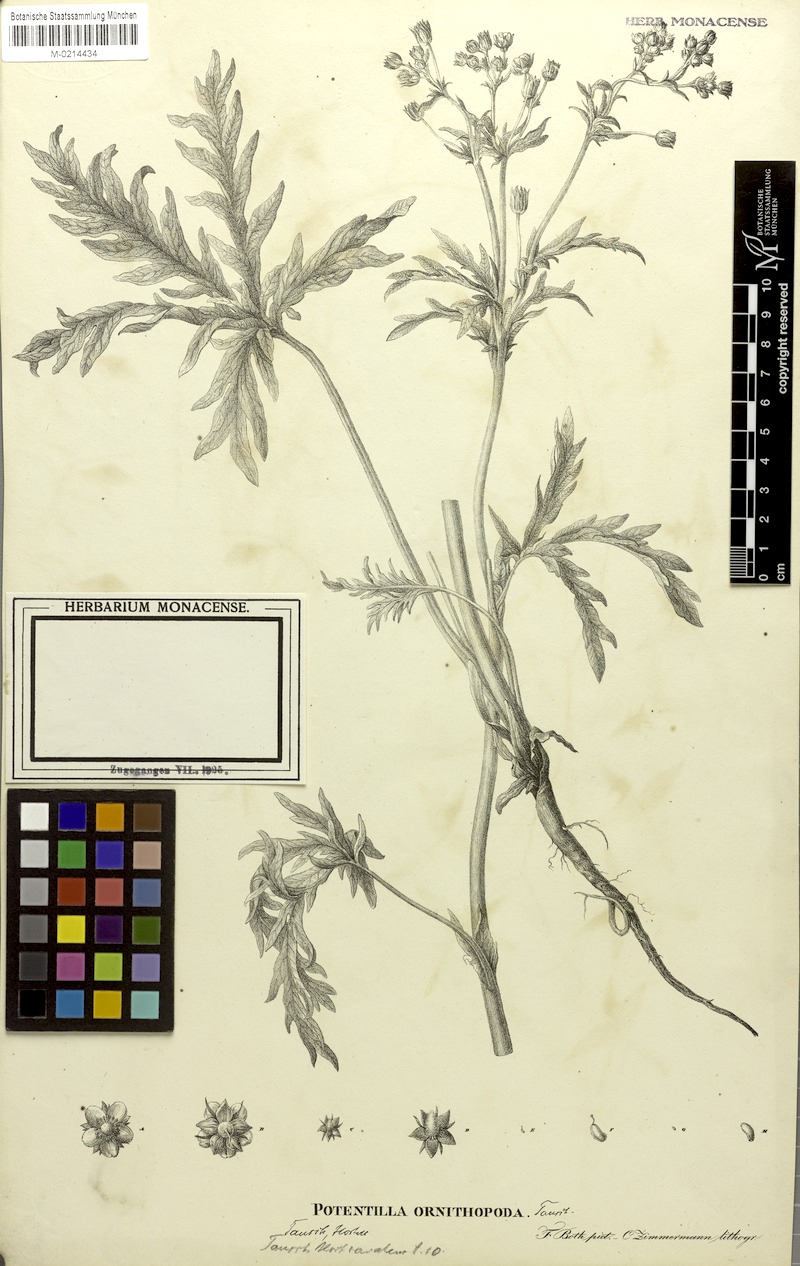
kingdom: Plantae
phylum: Tracheophyta
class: Magnoliopsida
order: Rosales
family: Rosaceae
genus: Potentilla
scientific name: Potentilla multifida
